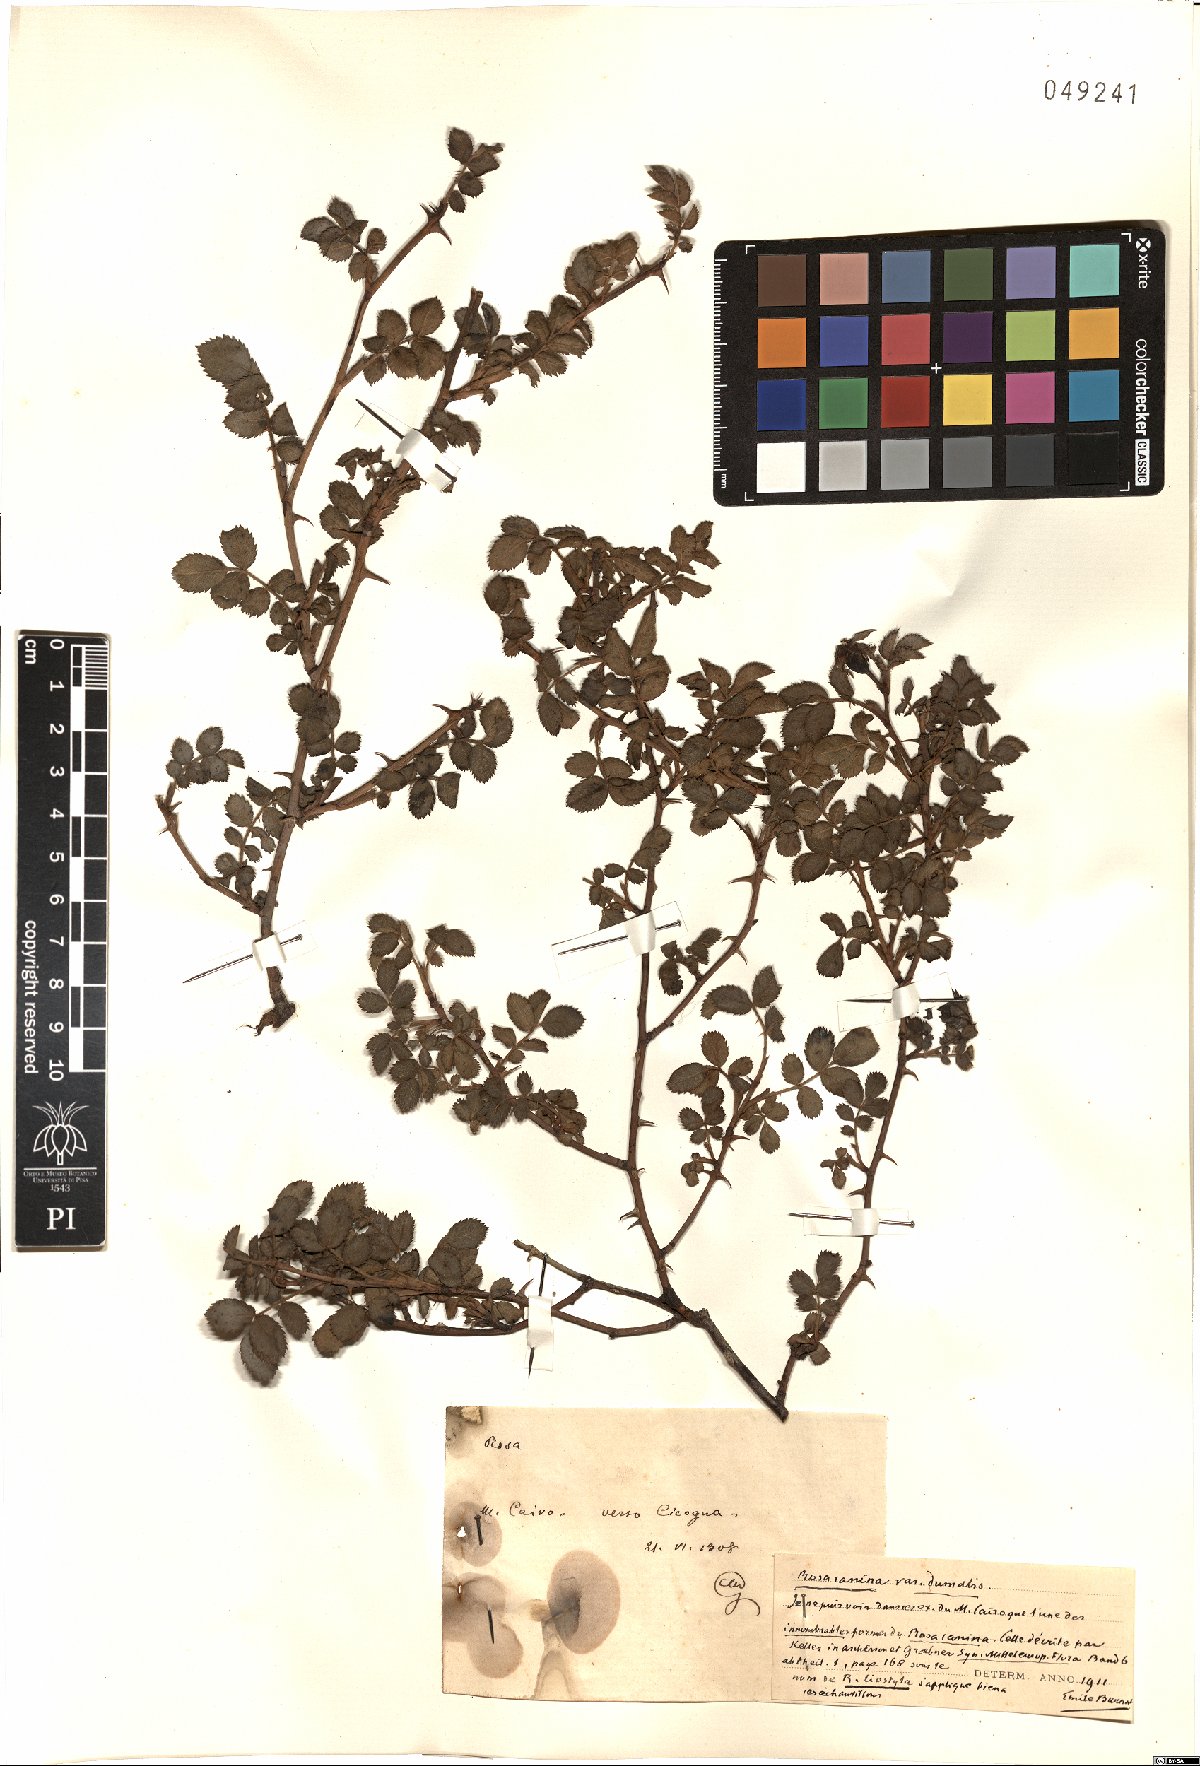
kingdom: Plantae
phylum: Tracheophyta
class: Magnoliopsida
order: Rosales
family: Rosaceae
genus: Rosa
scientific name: Rosa subcanina
